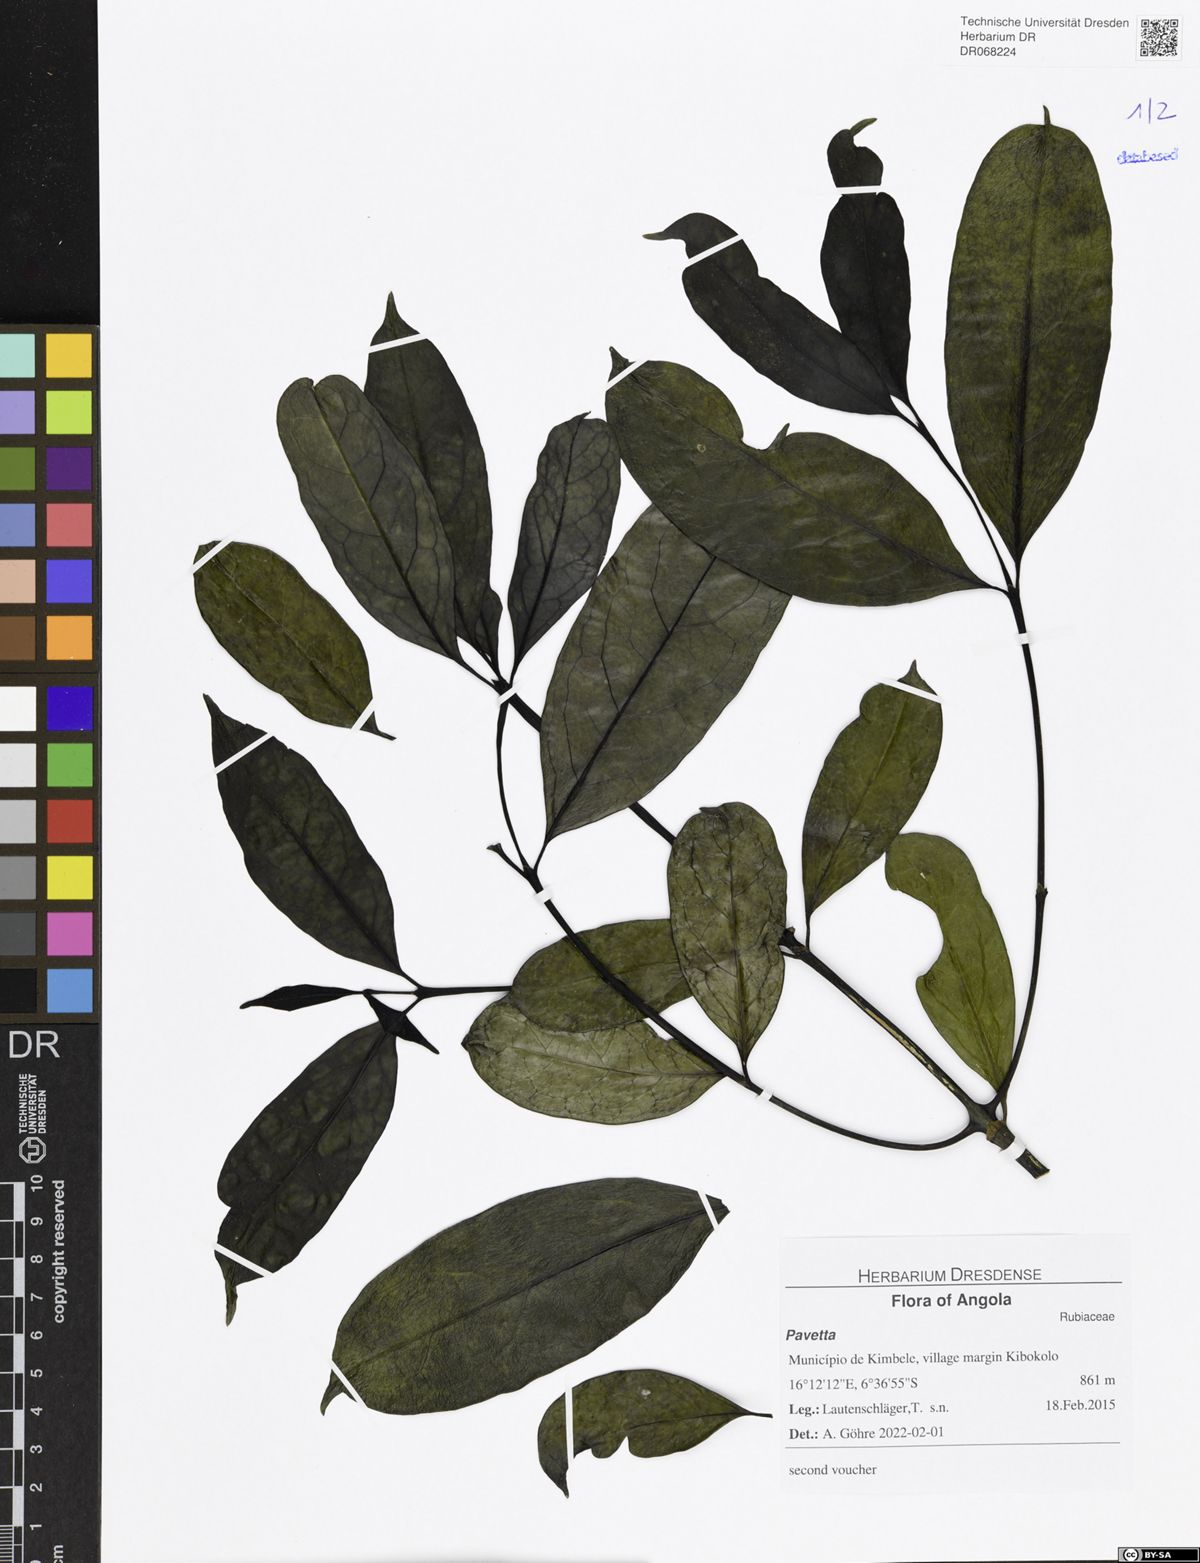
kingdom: Plantae
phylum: Tracheophyta
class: Magnoliopsida
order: Gentianales
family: Rubiaceae
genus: Pavetta
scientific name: Pavetta
